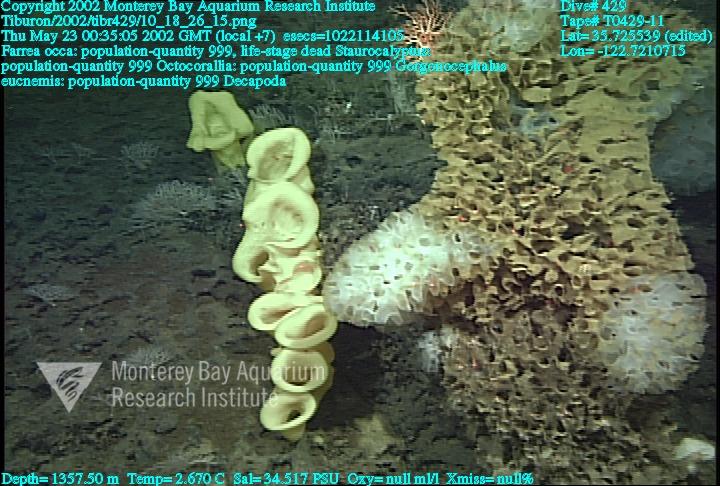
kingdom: Animalia
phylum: Porifera
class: Hexactinellida
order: Sceptrulophora
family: Farreidae
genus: Farrea
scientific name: Farrea occa
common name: Reversed glass sponge
